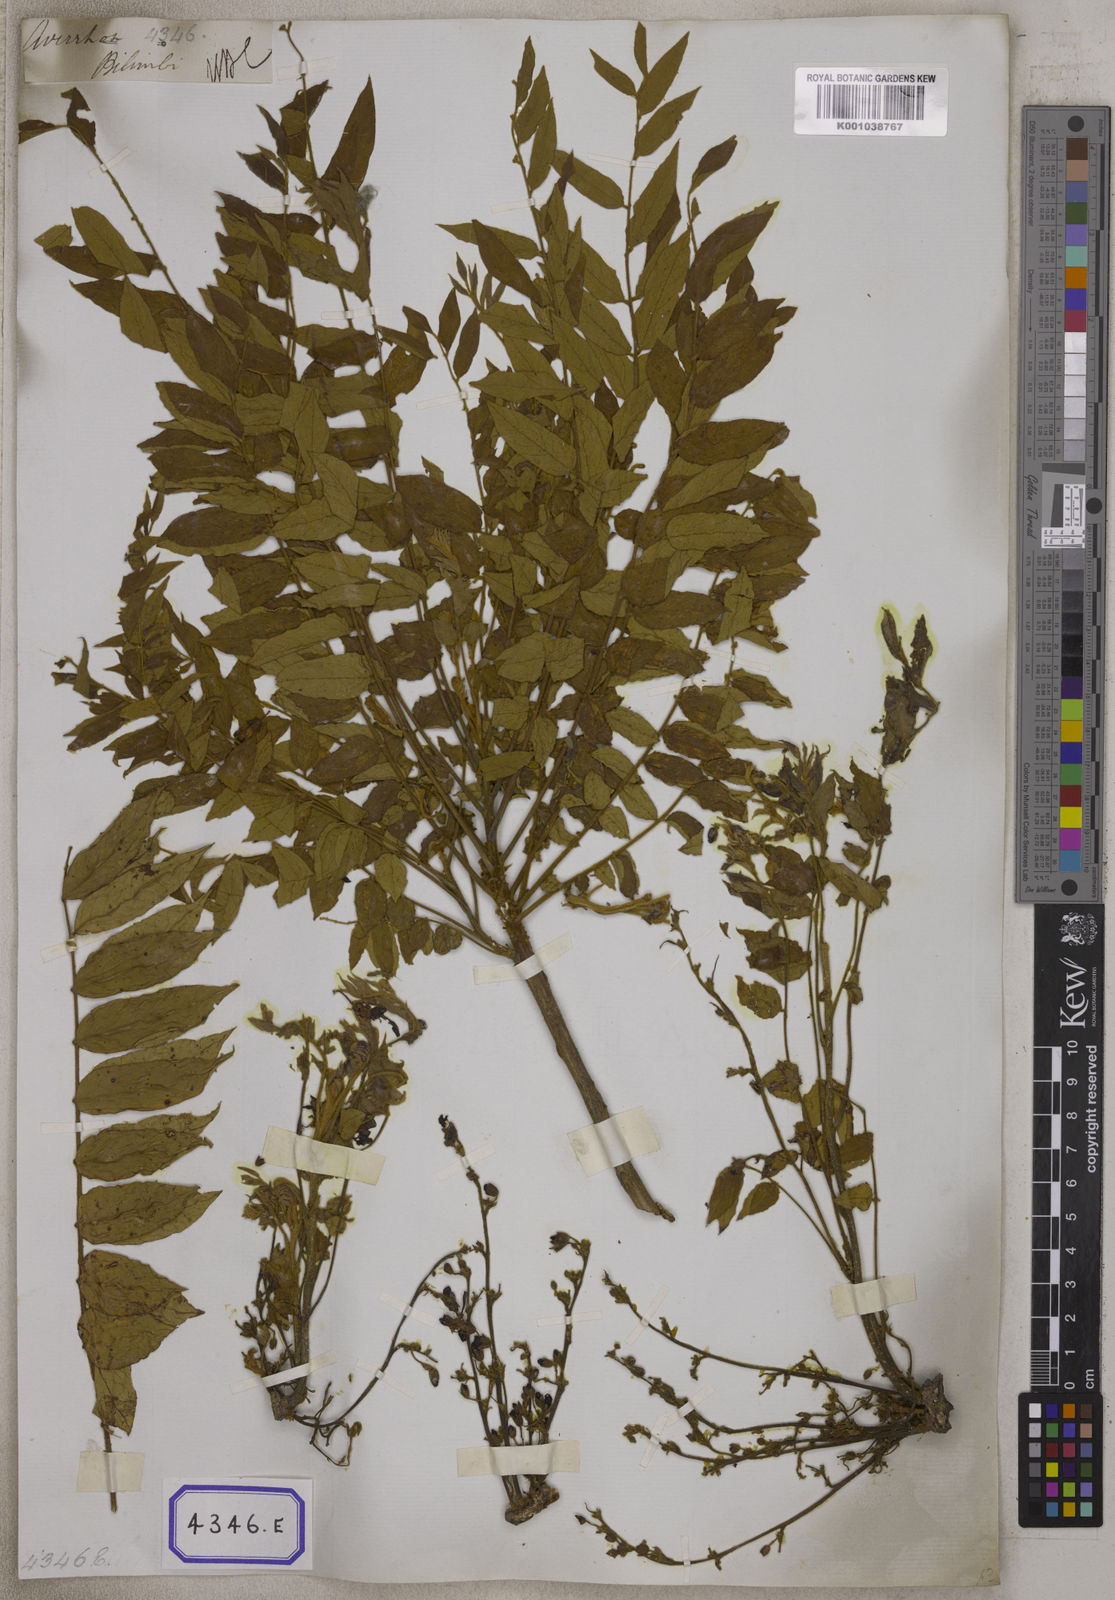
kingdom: Plantae
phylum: Tracheophyta
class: Magnoliopsida
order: Oxalidales
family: Oxalidaceae
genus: Averrhoa
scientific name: Averrhoa bilimbi
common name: Bilimbi
